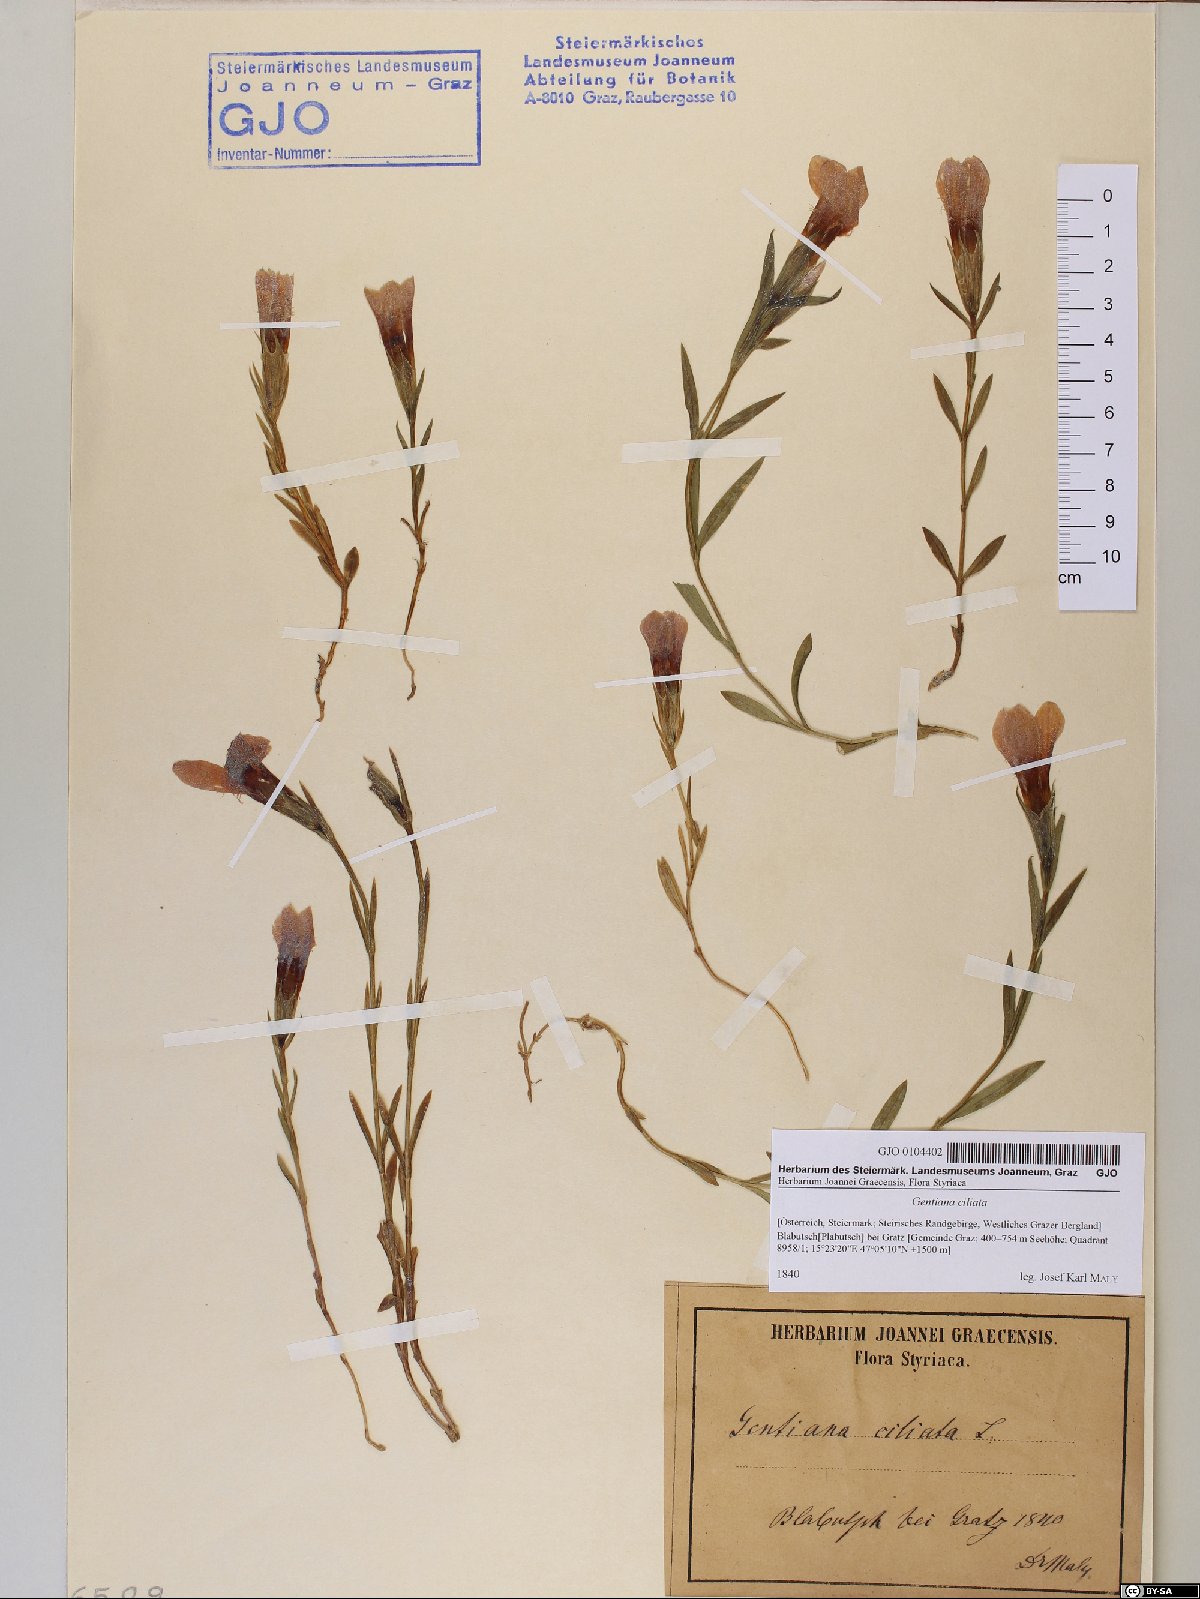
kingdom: Plantae
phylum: Tracheophyta
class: Magnoliopsida
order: Gentianales
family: Gentianaceae
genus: Gentianopsis
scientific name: Gentianopsis ciliata
